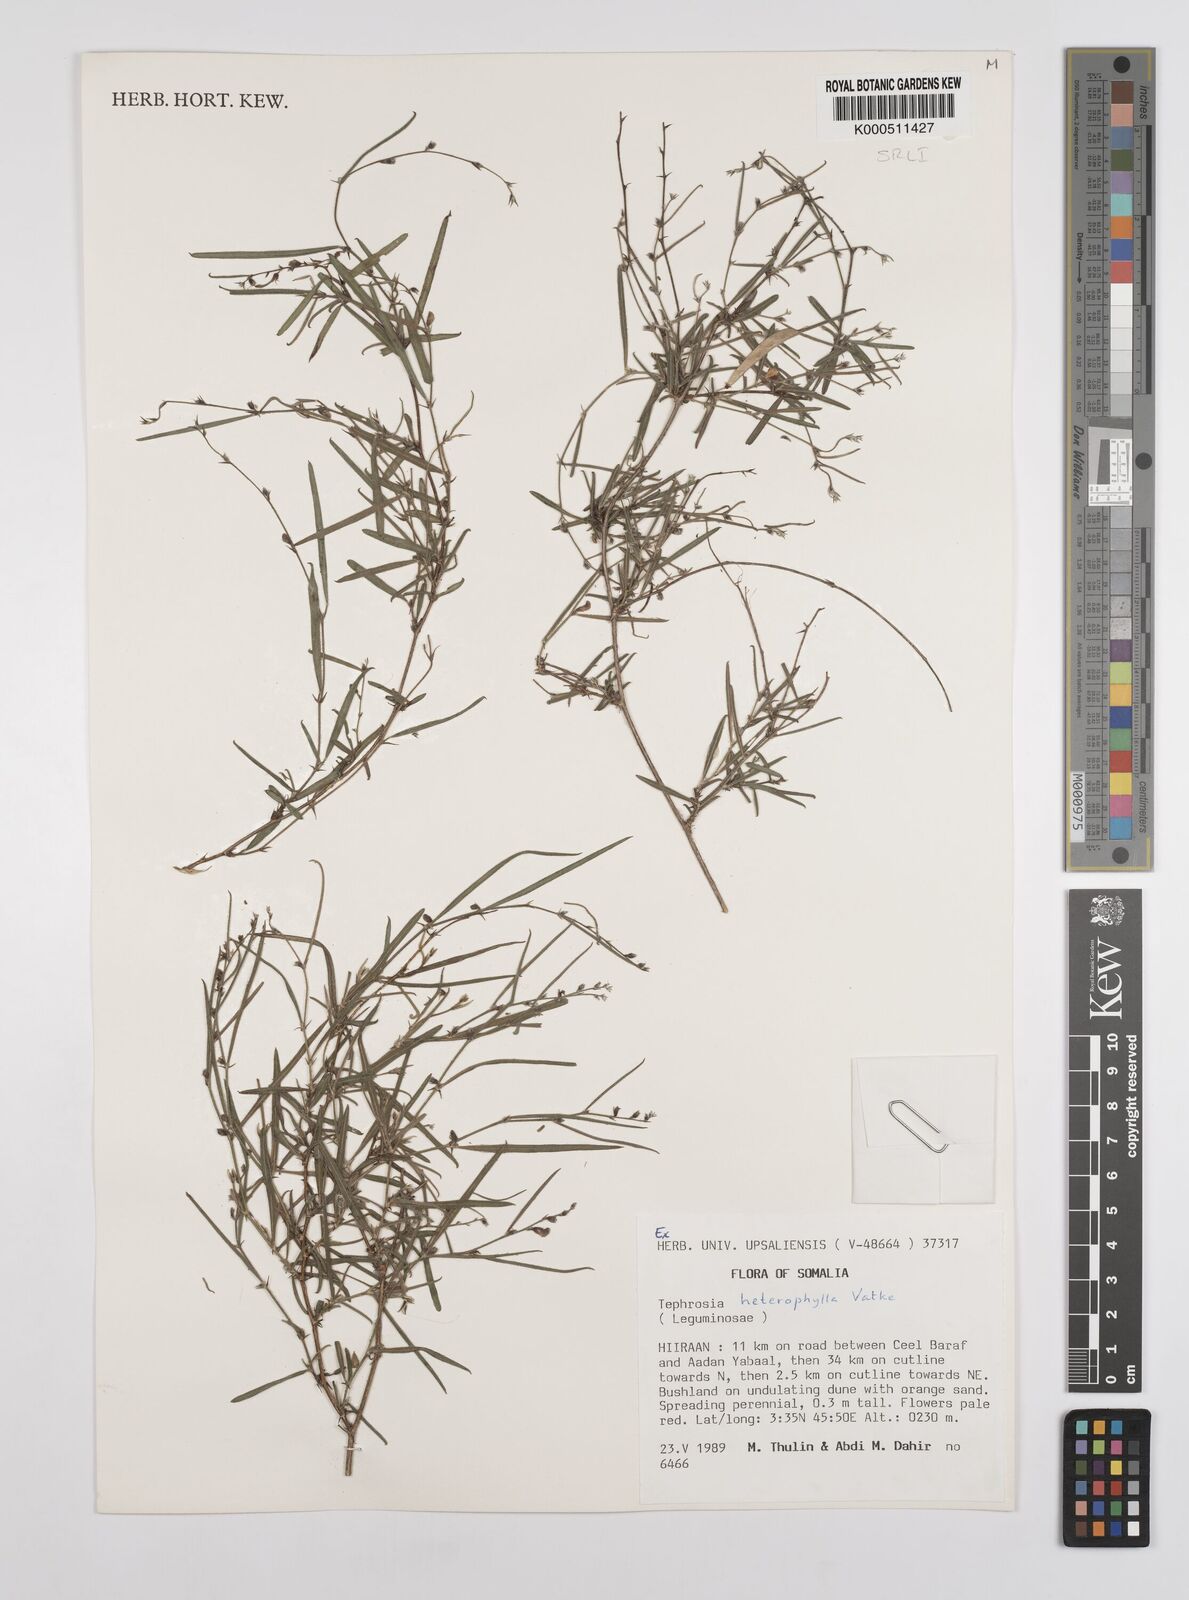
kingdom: Plantae
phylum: Tracheophyta
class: Magnoliopsida
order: Fabales
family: Fabaceae
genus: Tephrosia
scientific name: Tephrosia heterophylla
